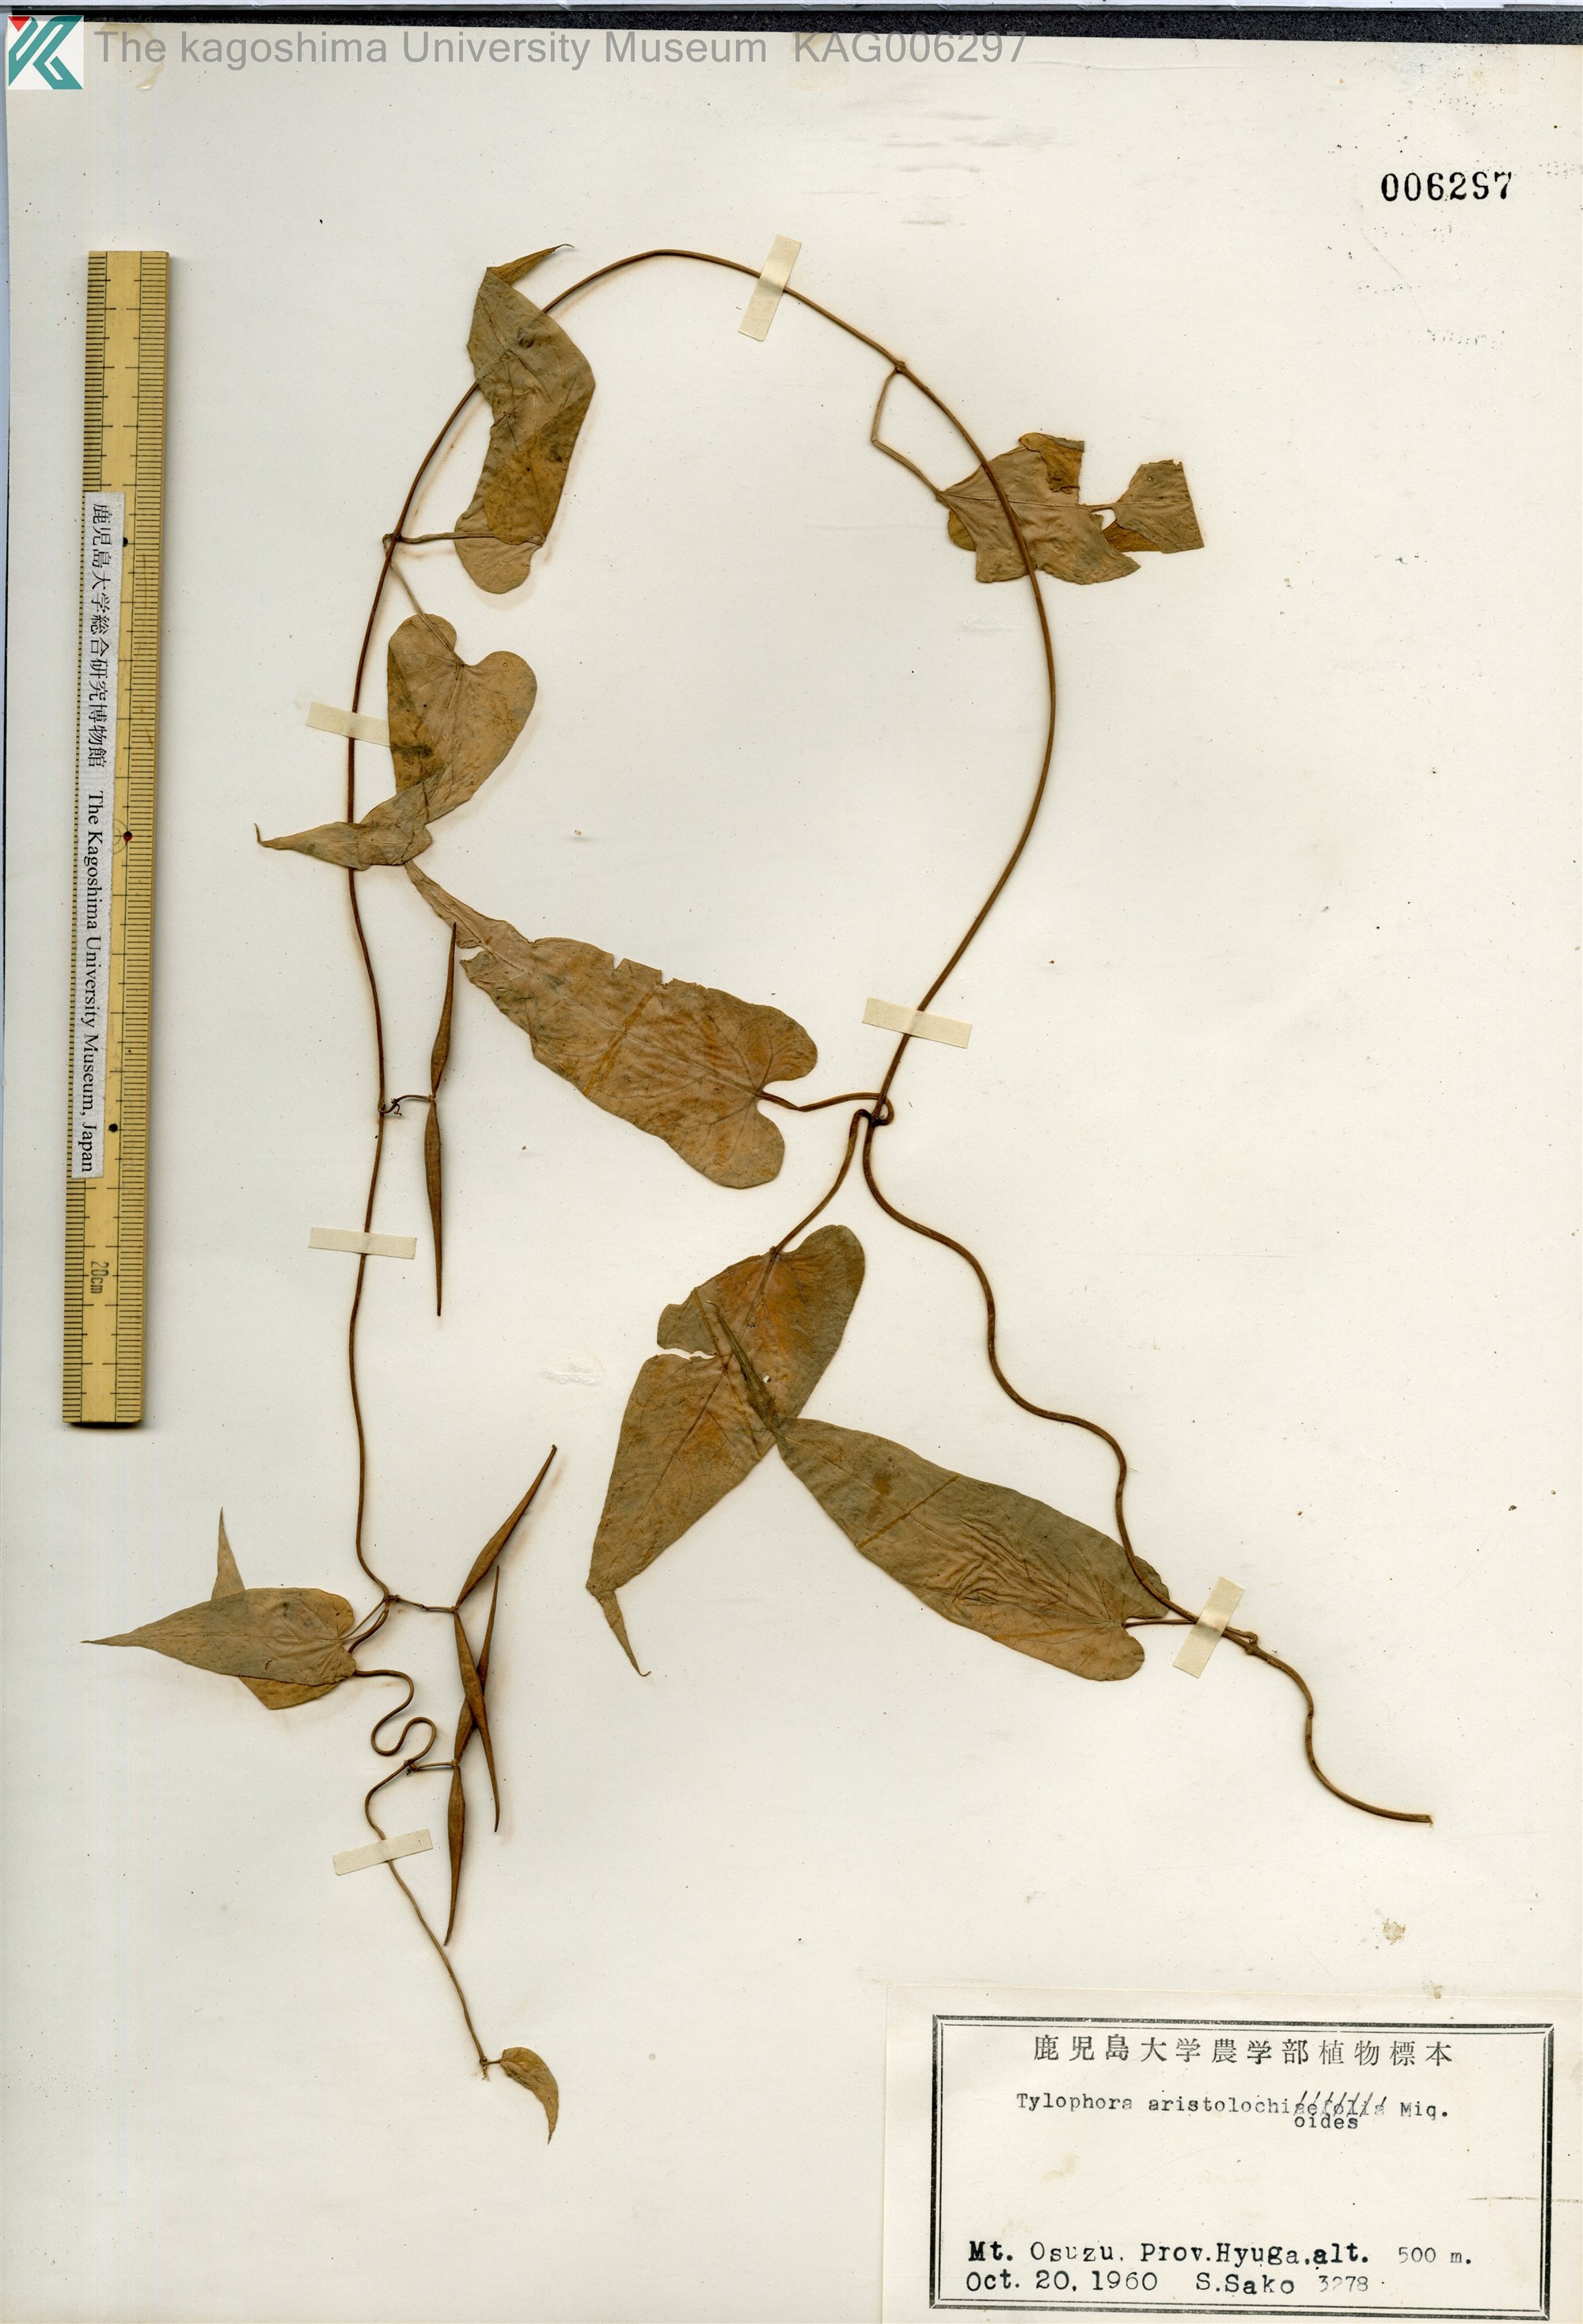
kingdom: Plantae
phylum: Tracheophyta
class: Magnoliopsida
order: Gentianales
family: Apocynaceae
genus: Vincetoxicum
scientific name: Vincetoxicum aristolochioides
